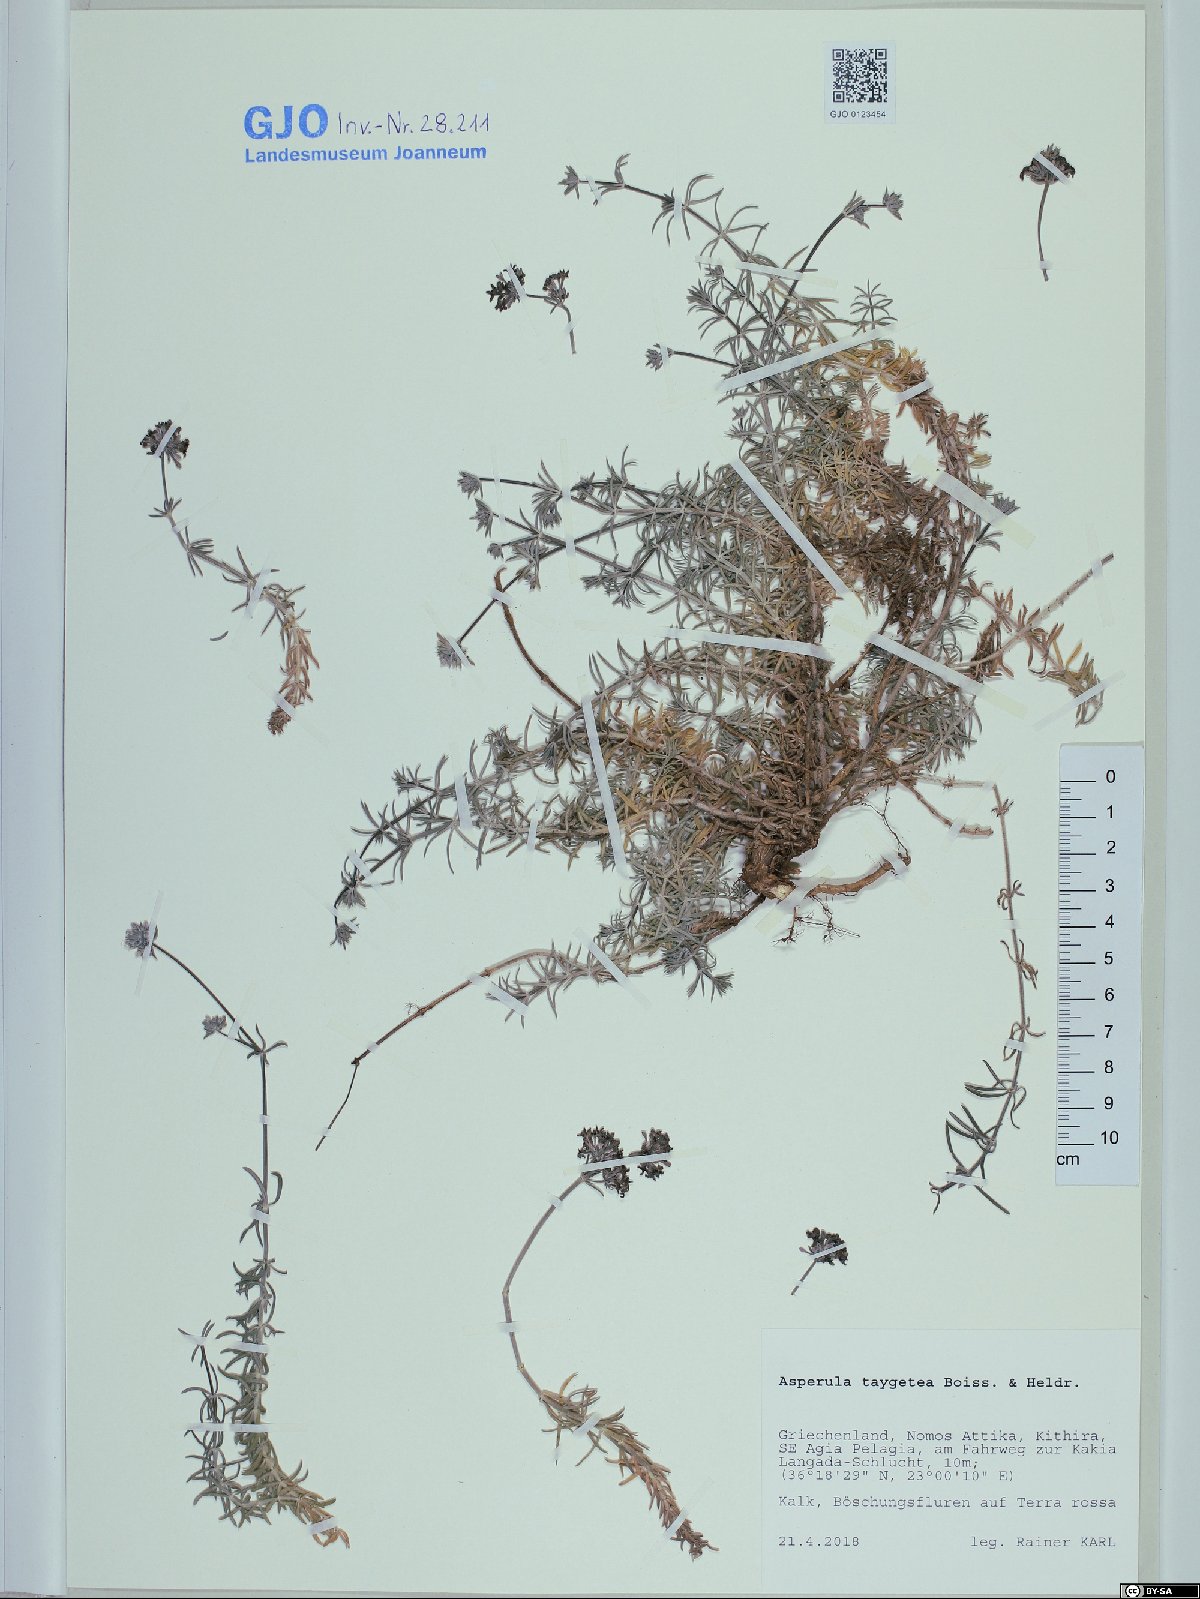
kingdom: Plantae
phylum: Tracheophyta
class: Magnoliopsida
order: Gentianales
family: Rubiaceae
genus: Hexaphylla
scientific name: Hexaphylla taygetea
